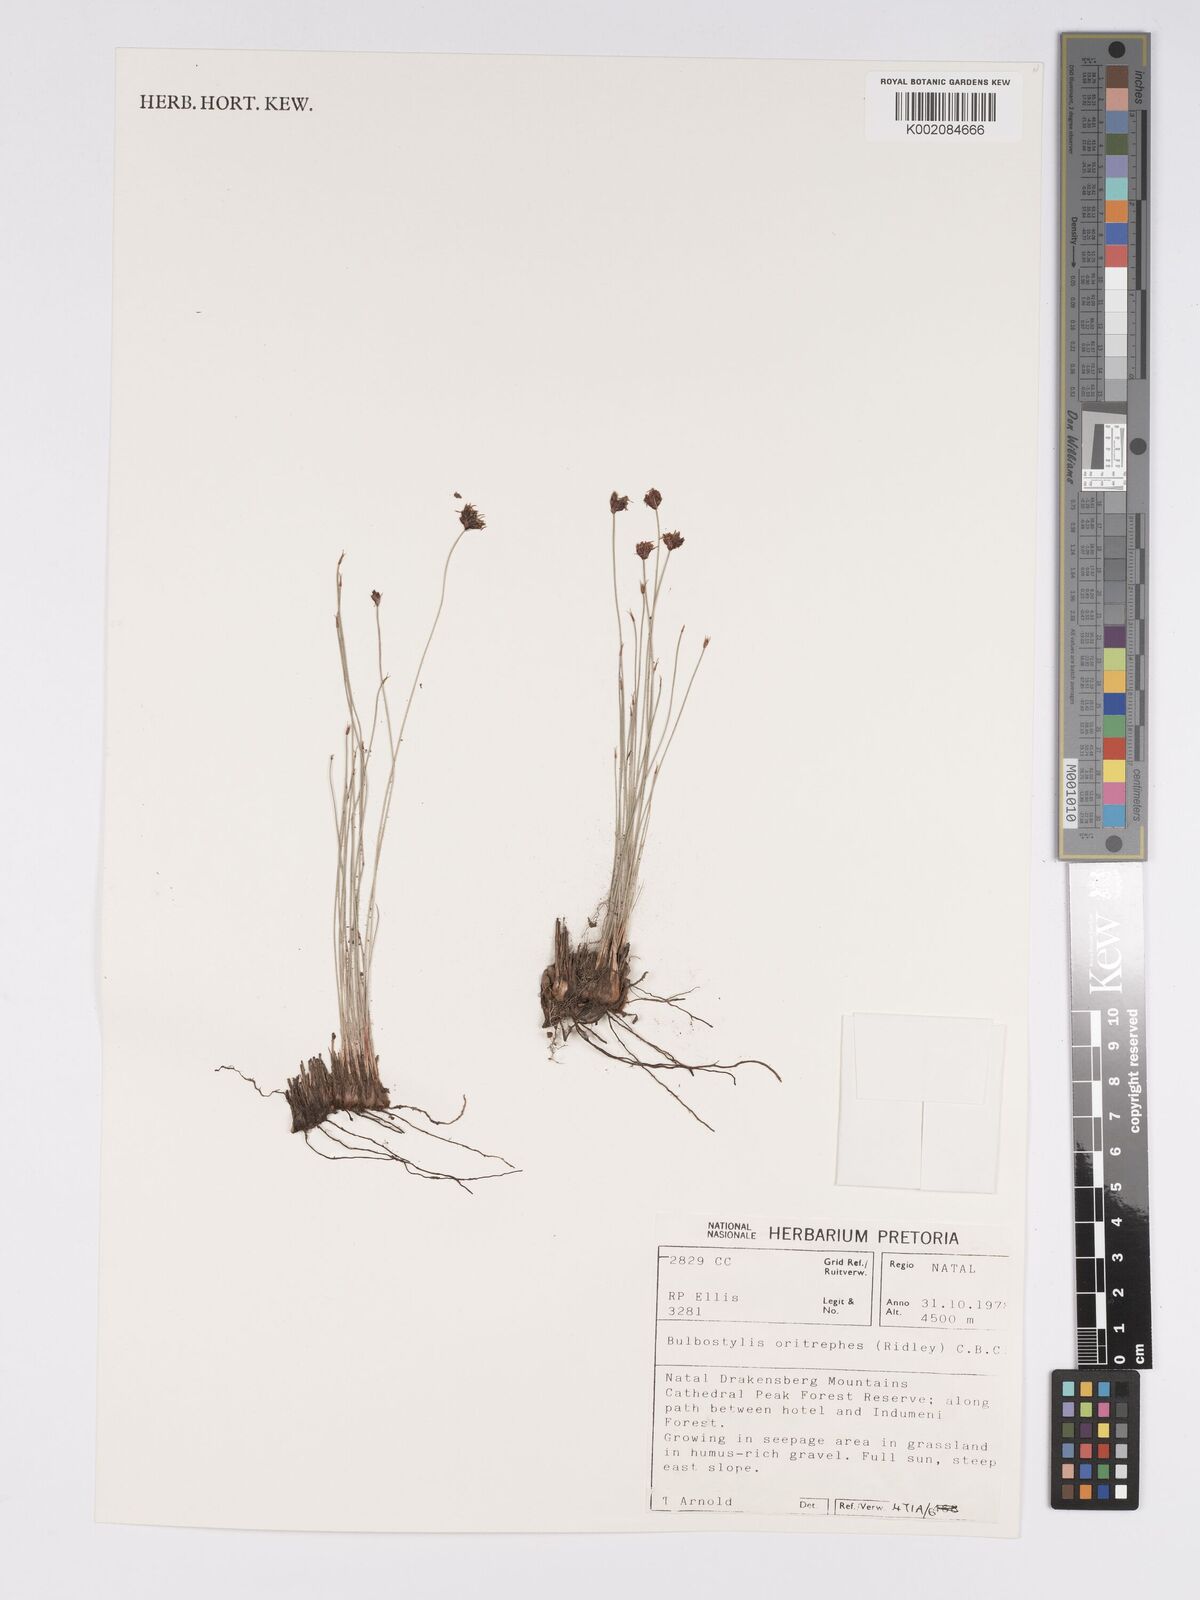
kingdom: Plantae
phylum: Tracheophyta
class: Liliopsida
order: Poales
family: Cyperaceae
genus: Bulbostylis
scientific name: Bulbostylis oritrephes
